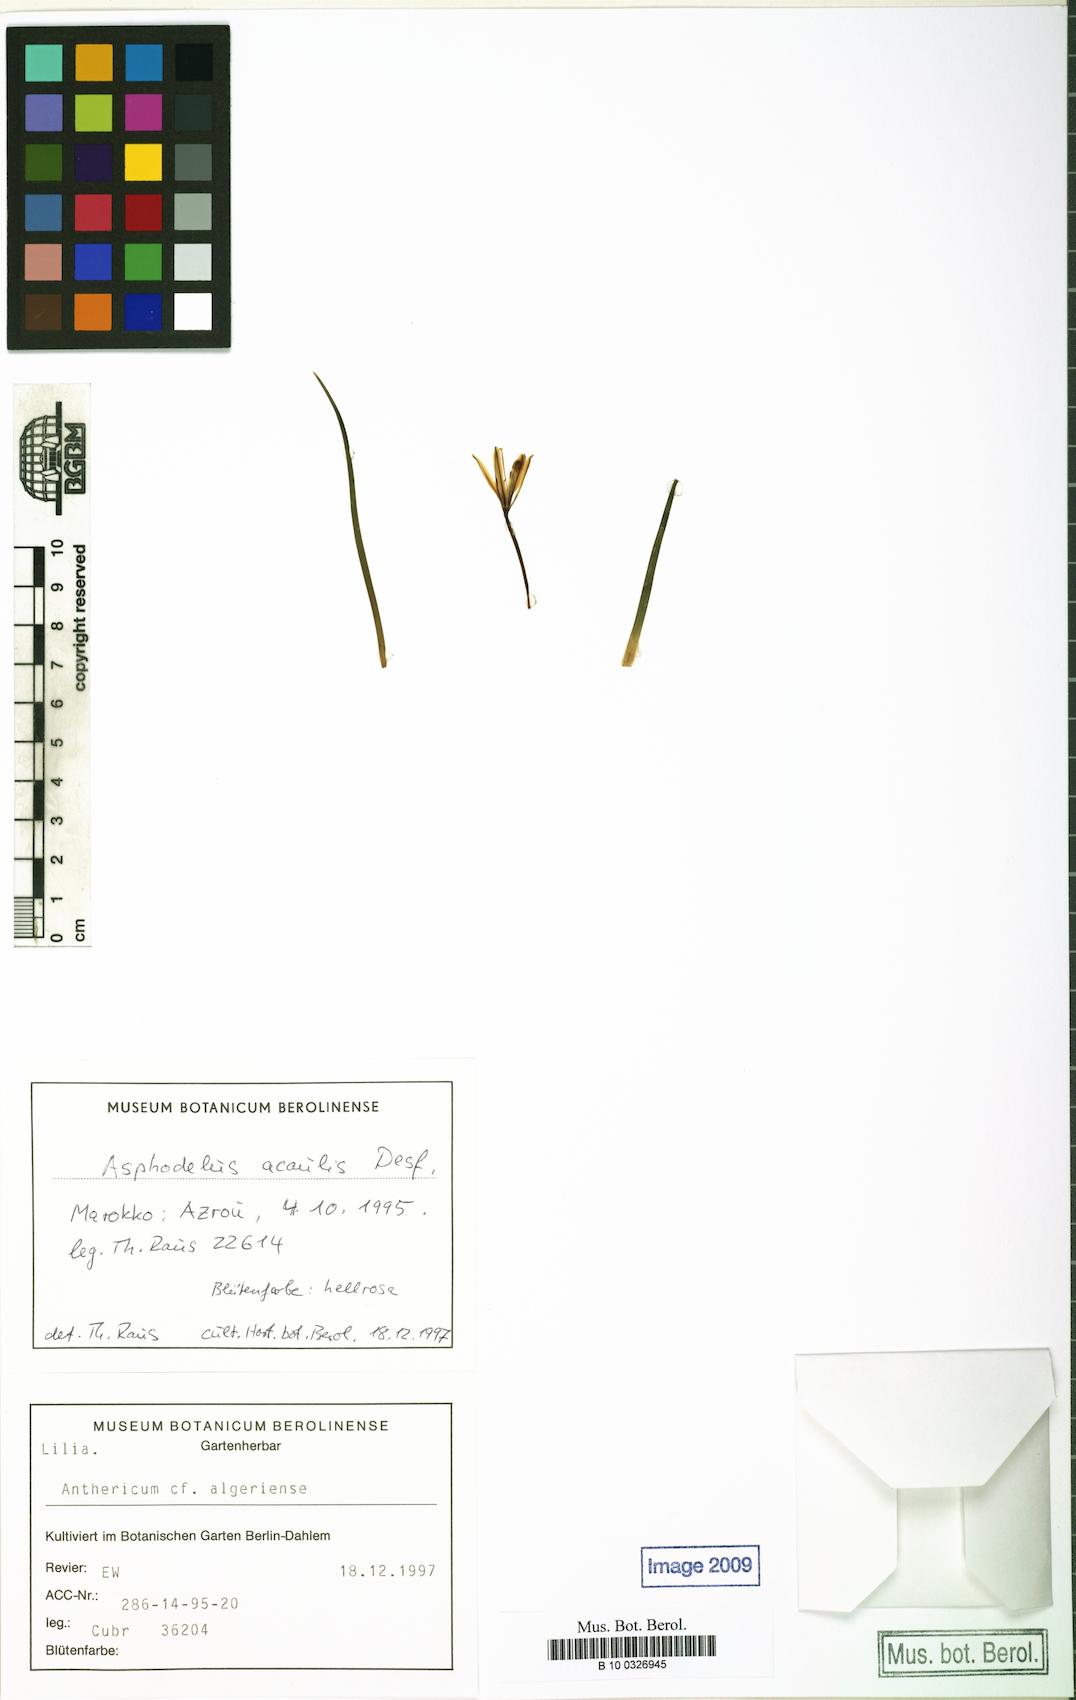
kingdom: Plantae
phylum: Tracheophyta
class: Liliopsida
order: Asparagales
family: Asphodelaceae
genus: Asphodelus
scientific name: Asphodelus acaulis
